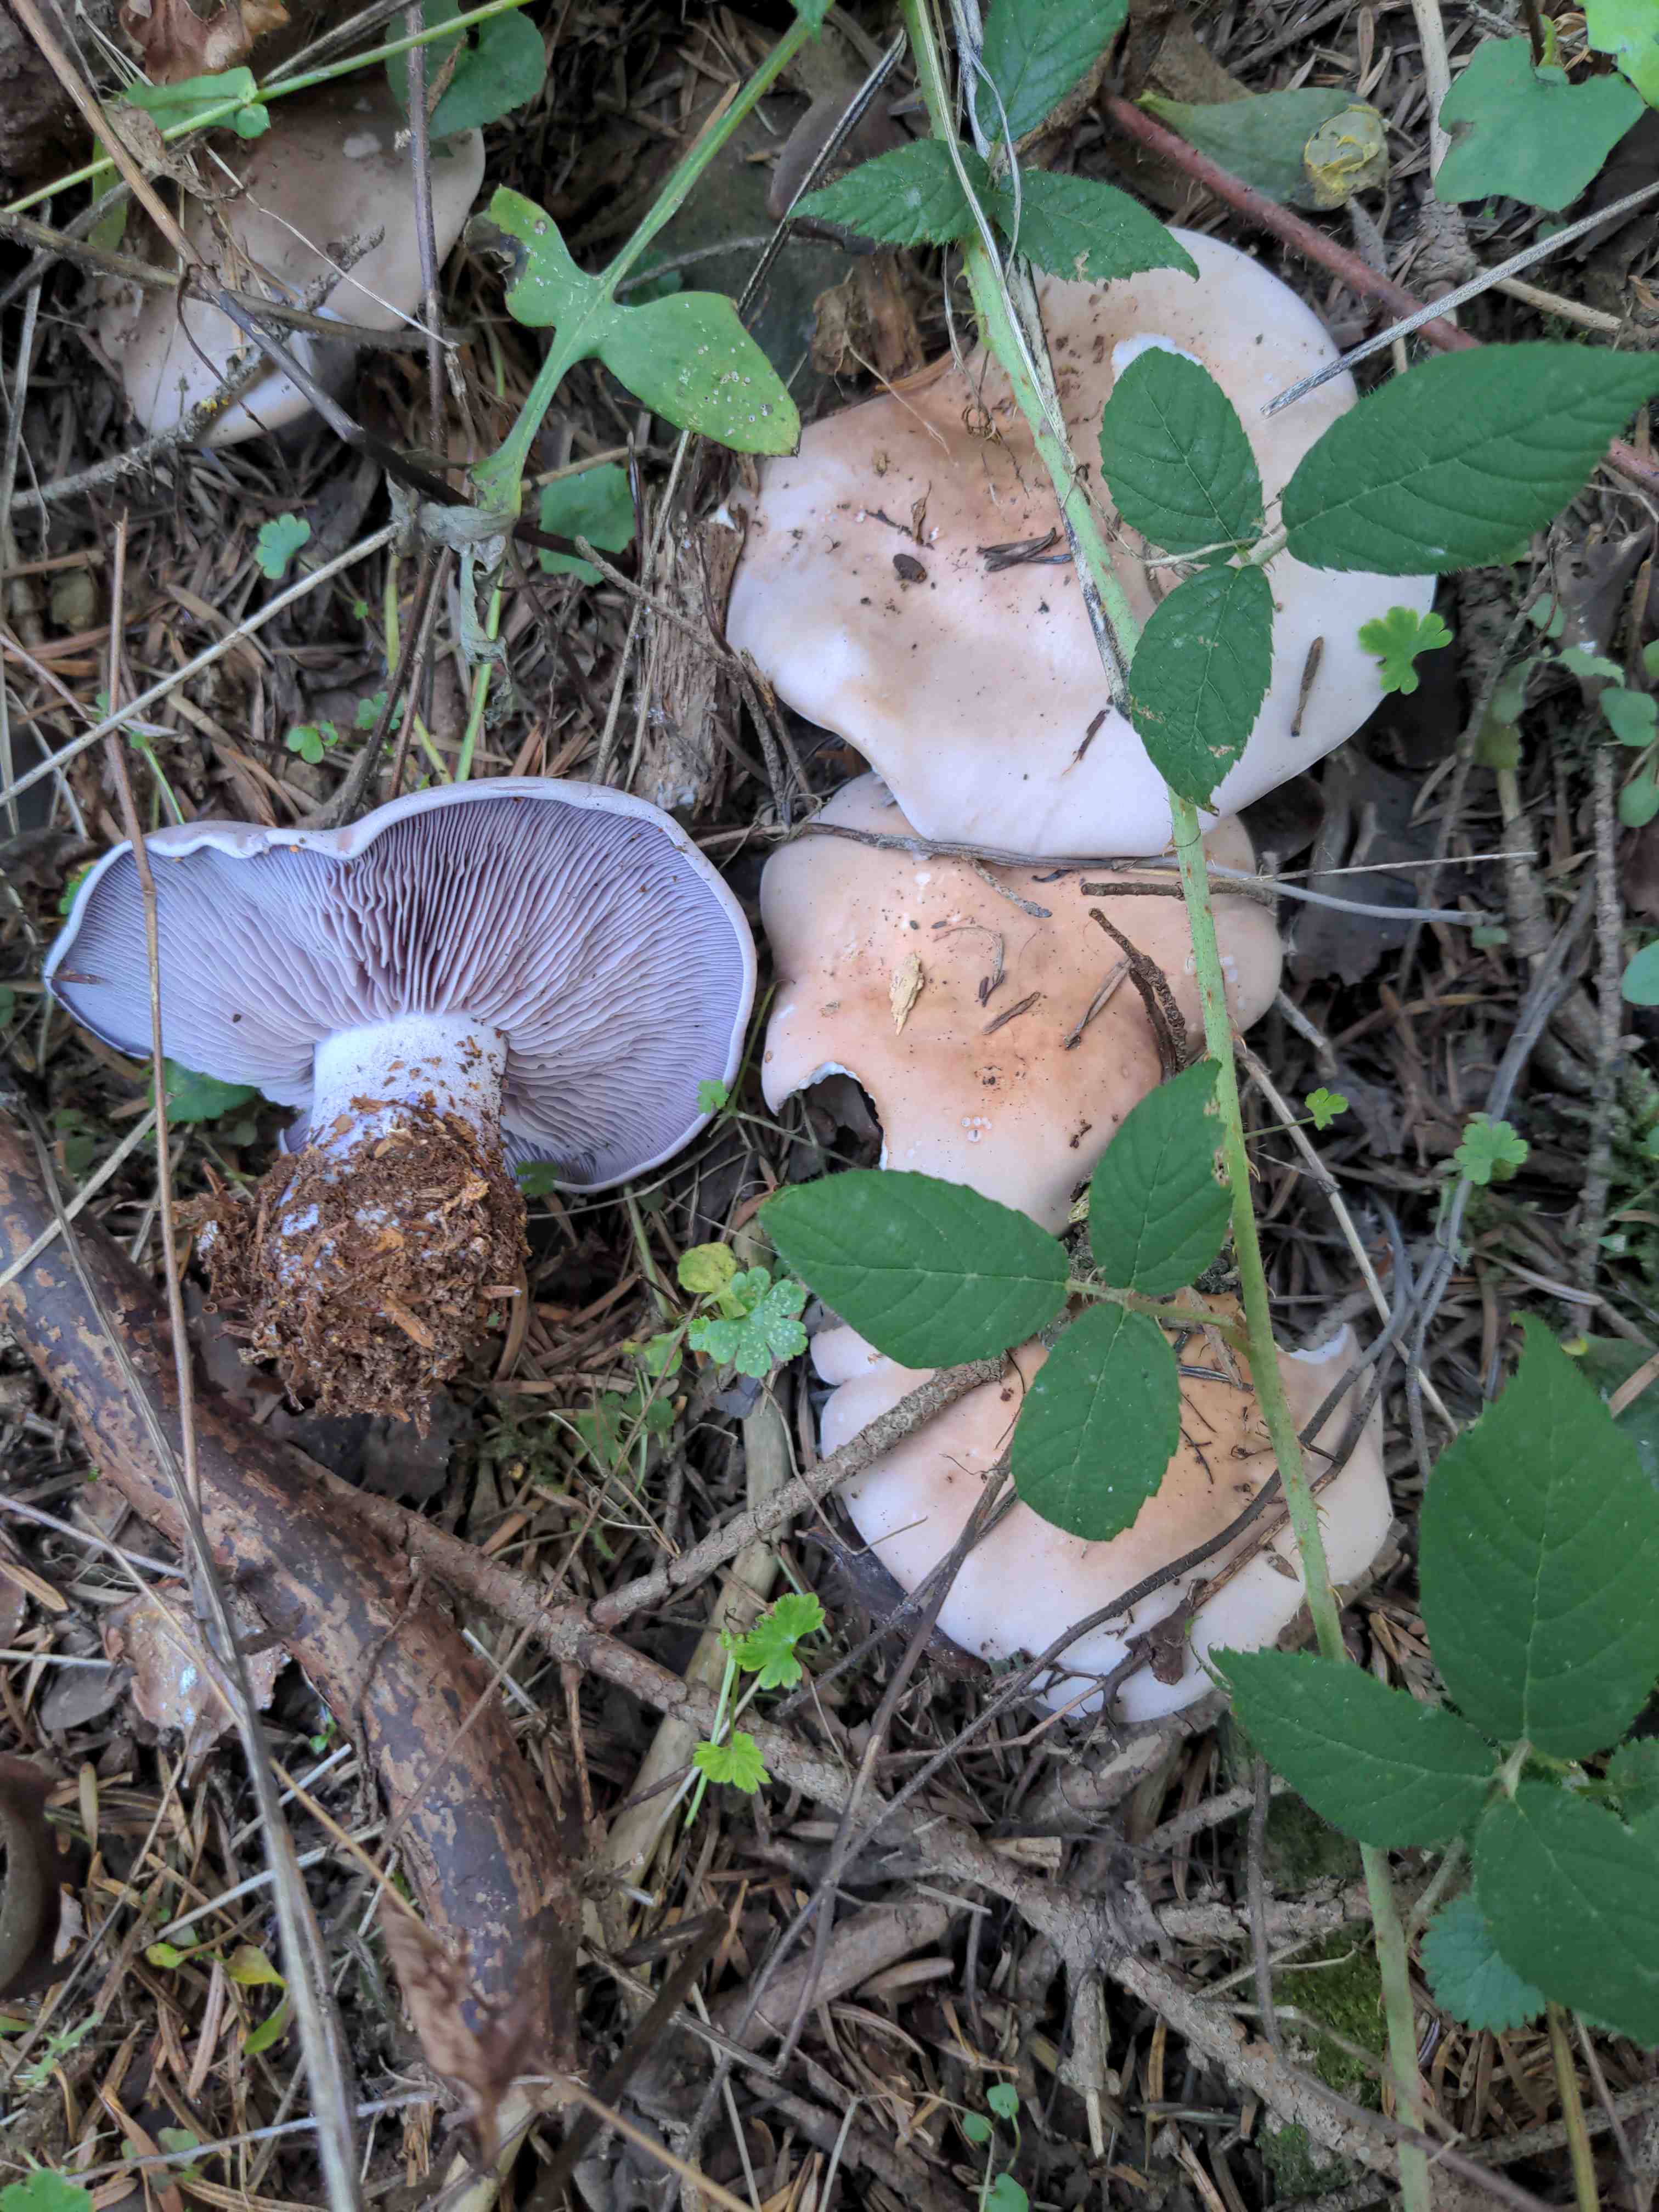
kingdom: Fungi
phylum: Basidiomycota
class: Agaricomycetes
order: Agaricales
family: Tricholomataceae
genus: Lepista
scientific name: Lepista nuda
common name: violet hekseringshat
